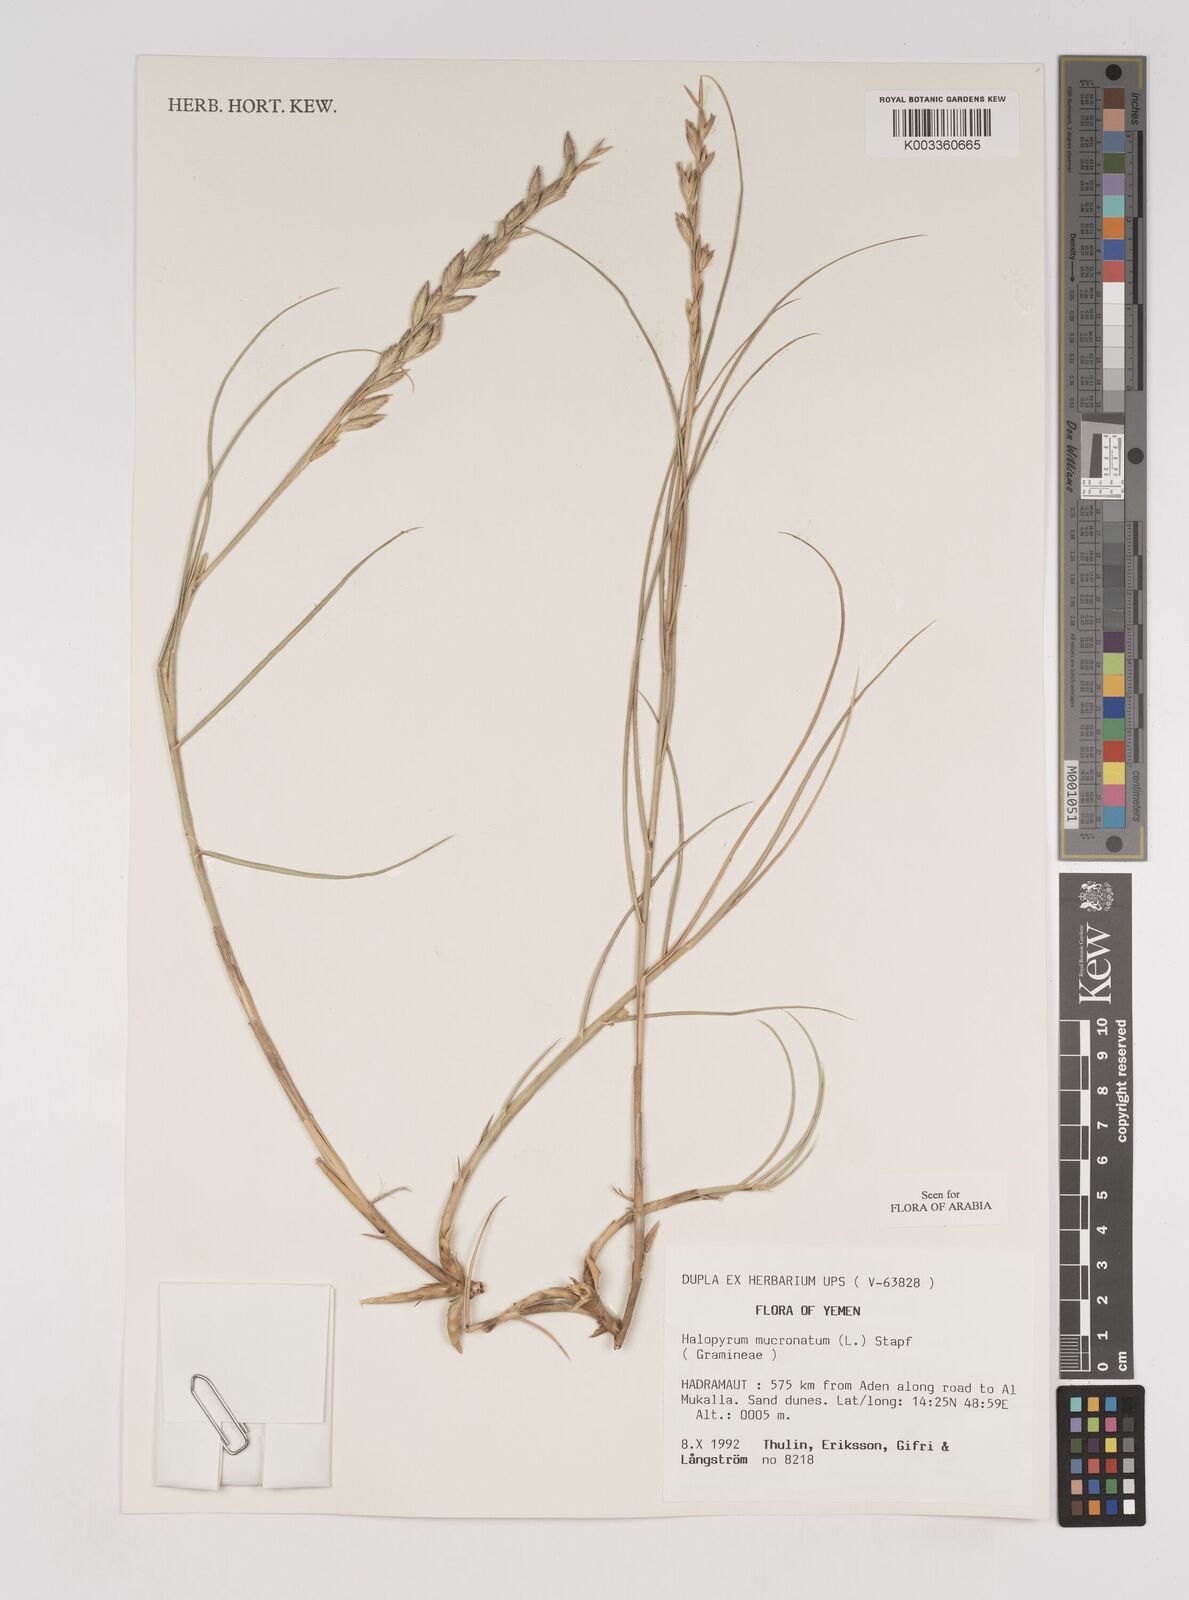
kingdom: Plantae
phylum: Tracheophyta
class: Liliopsida
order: Poales
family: Poaceae
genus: Halopyrum
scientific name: Halopyrum mucronatum
